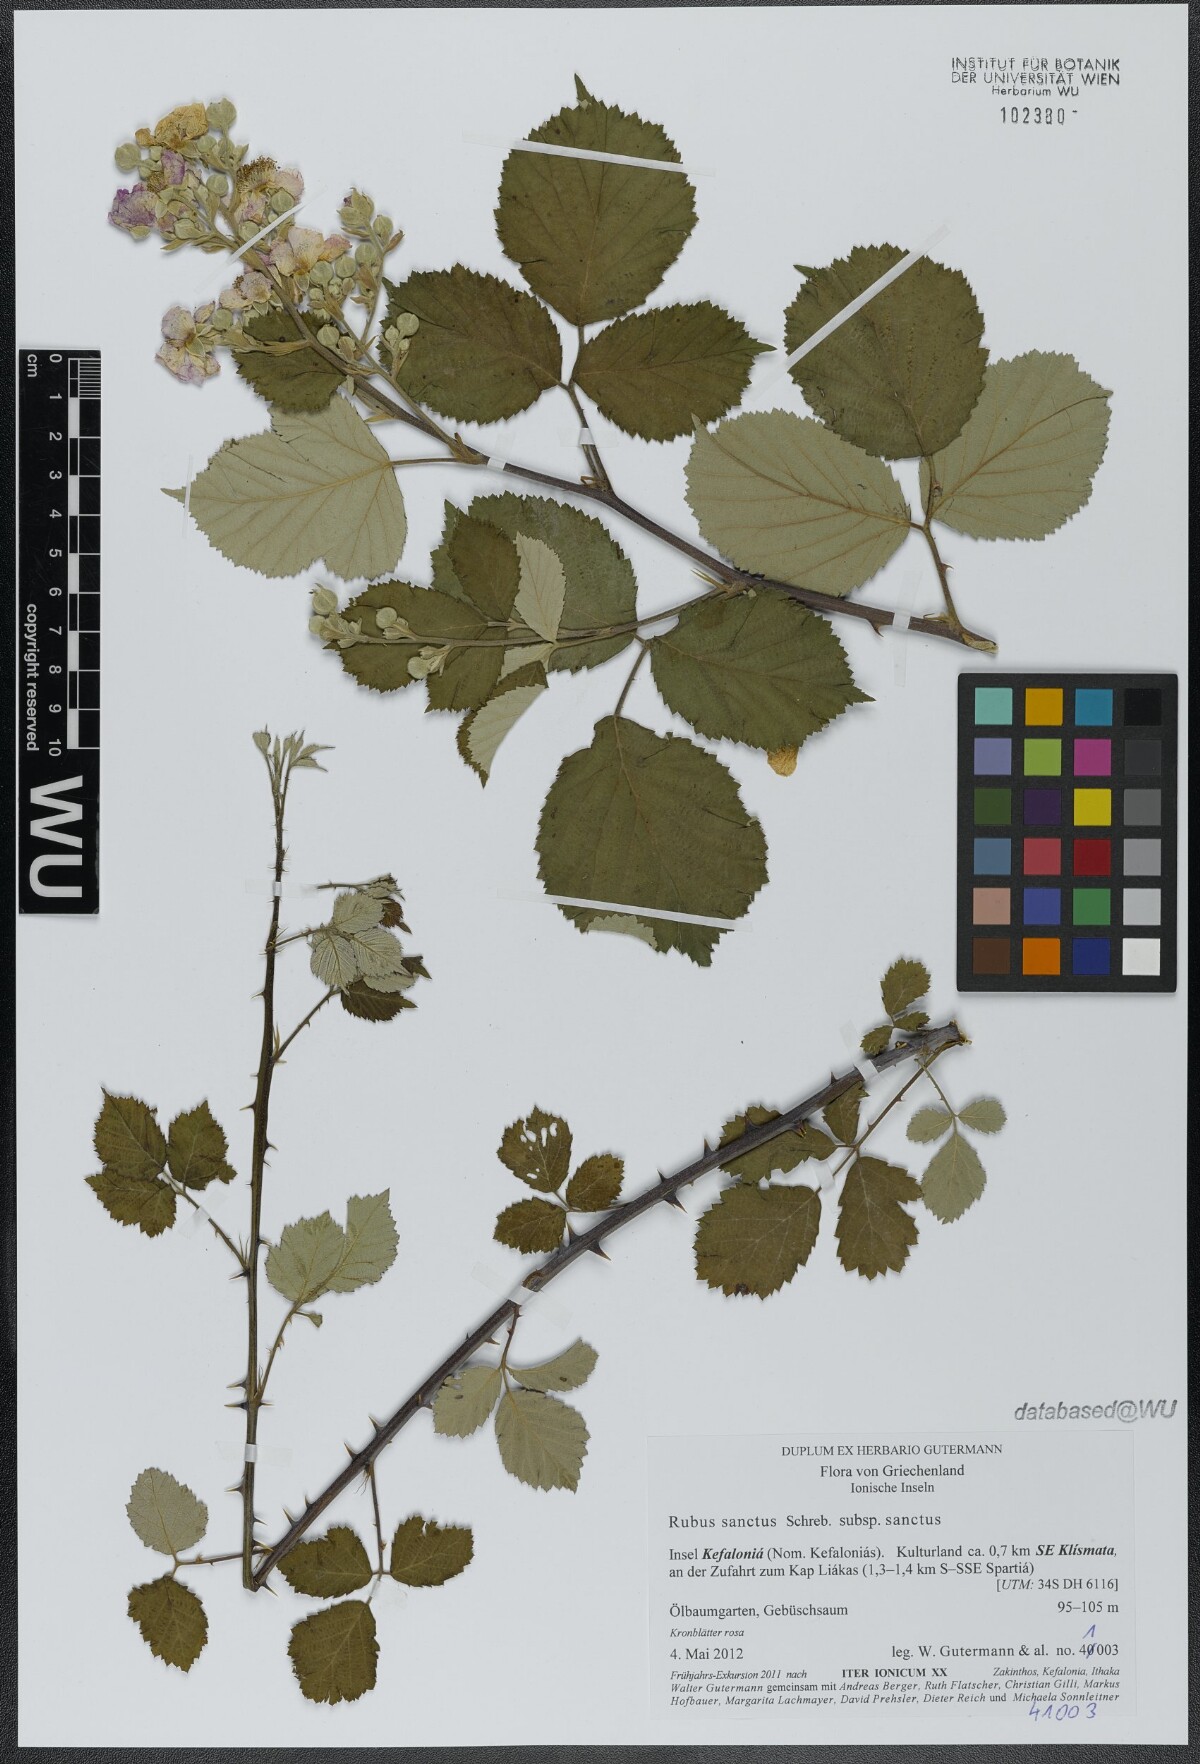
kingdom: Plantae
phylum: Tracheophyta
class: Magnoliopsida
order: Rosales
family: Rosaceae
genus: Rubus
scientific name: Rubus sanctus
